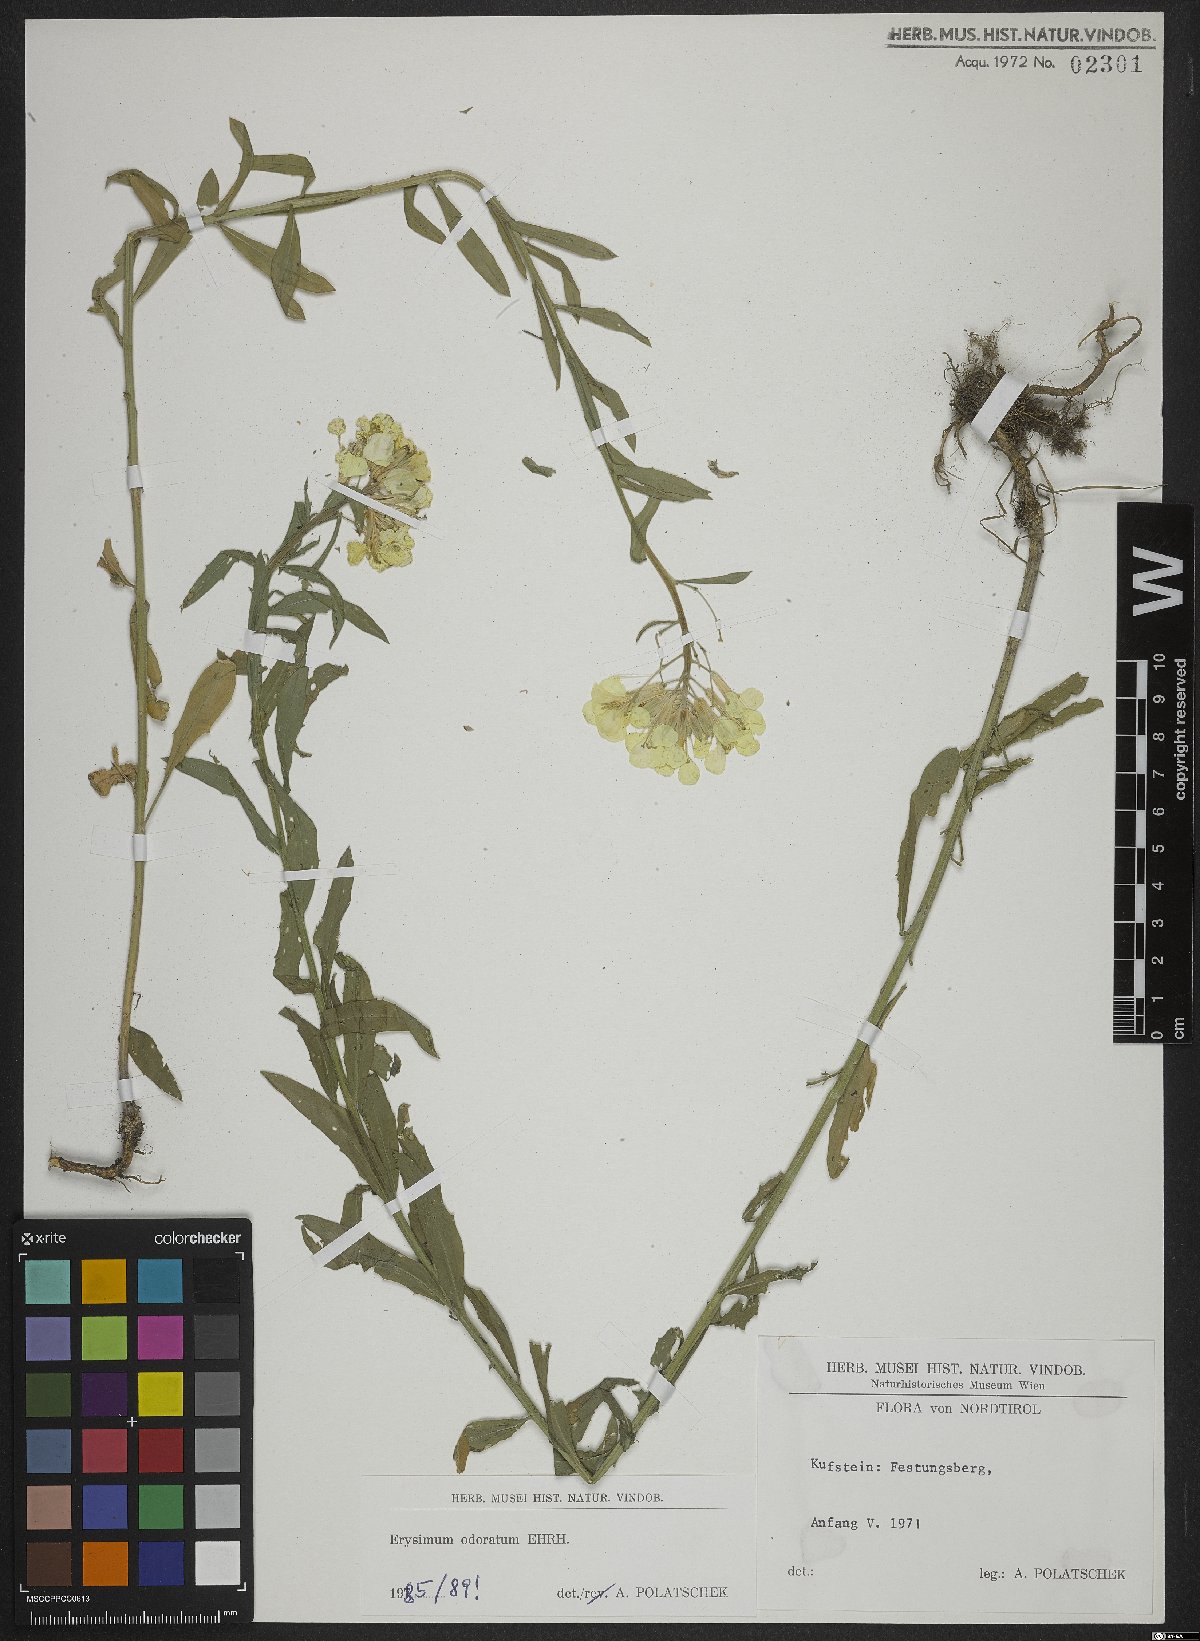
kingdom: Plantae
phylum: Tracheophyta
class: Magnoliopsida
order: Brassicales
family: Brassicaceae
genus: Erysimum
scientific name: Erysimum odoratum
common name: Smelly wallflower
